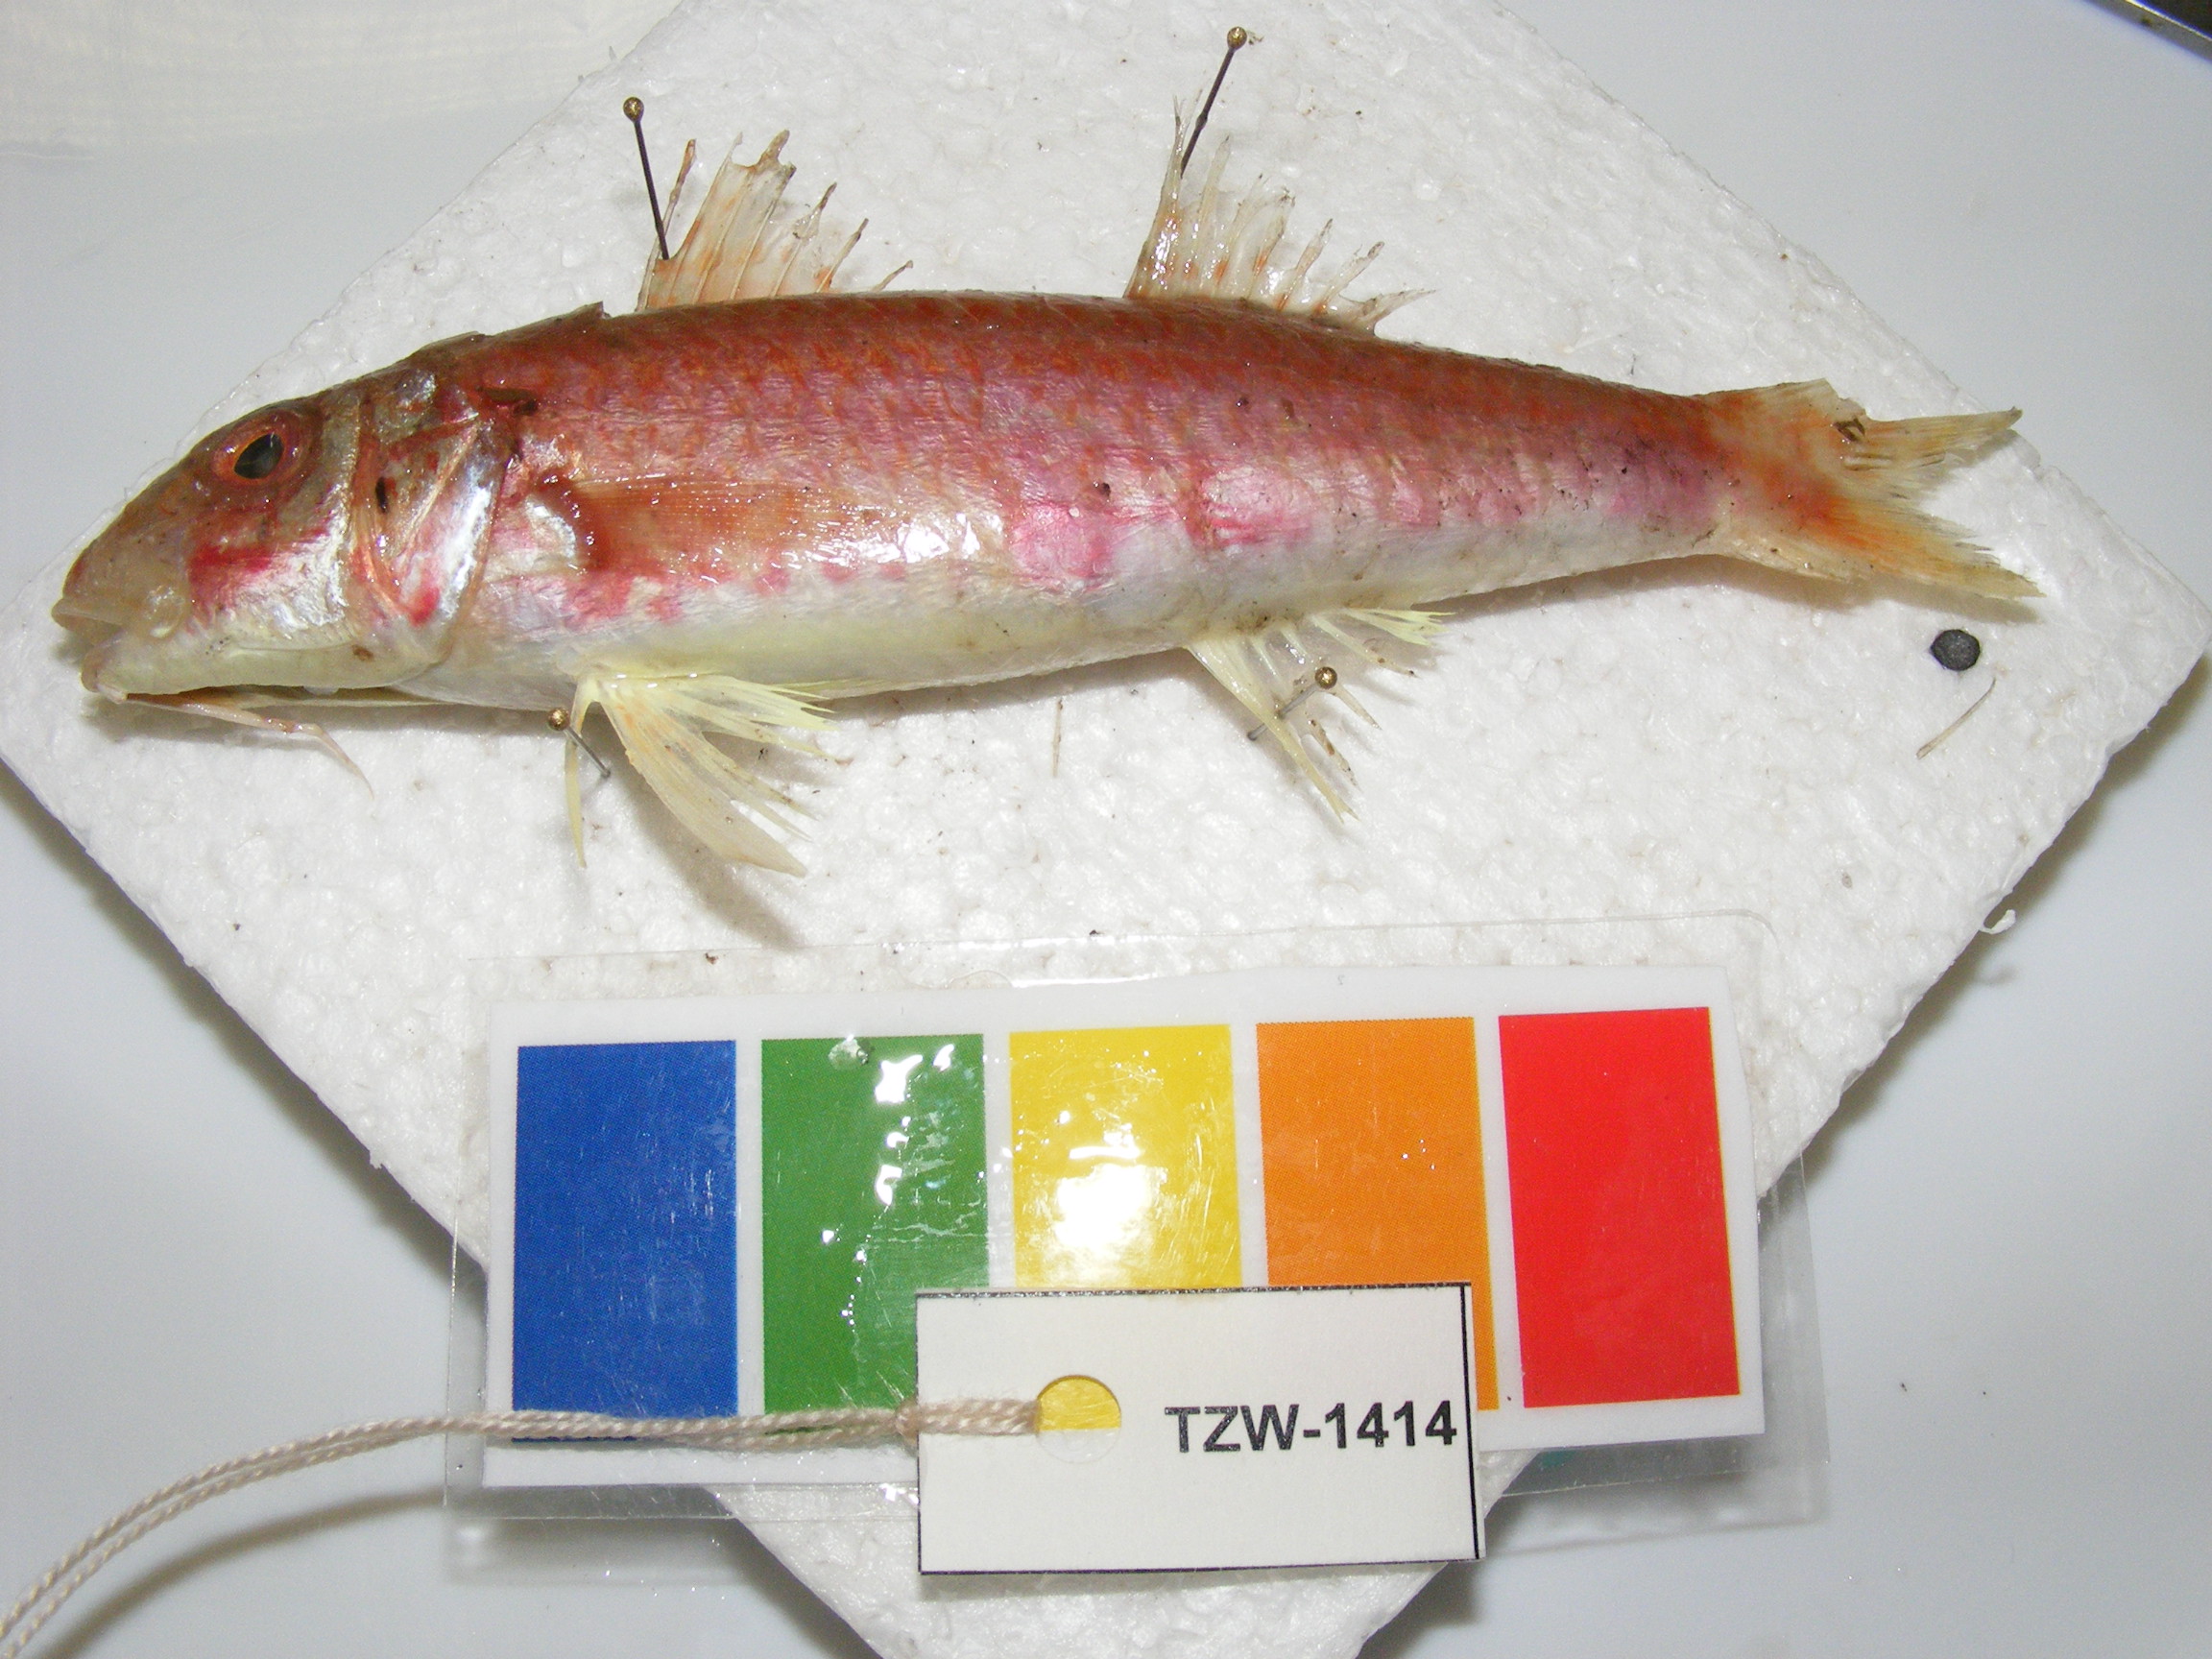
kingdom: Animalia
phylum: Chordata
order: Perciformes
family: Mullidae
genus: Upeneus
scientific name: Upeneus floros
